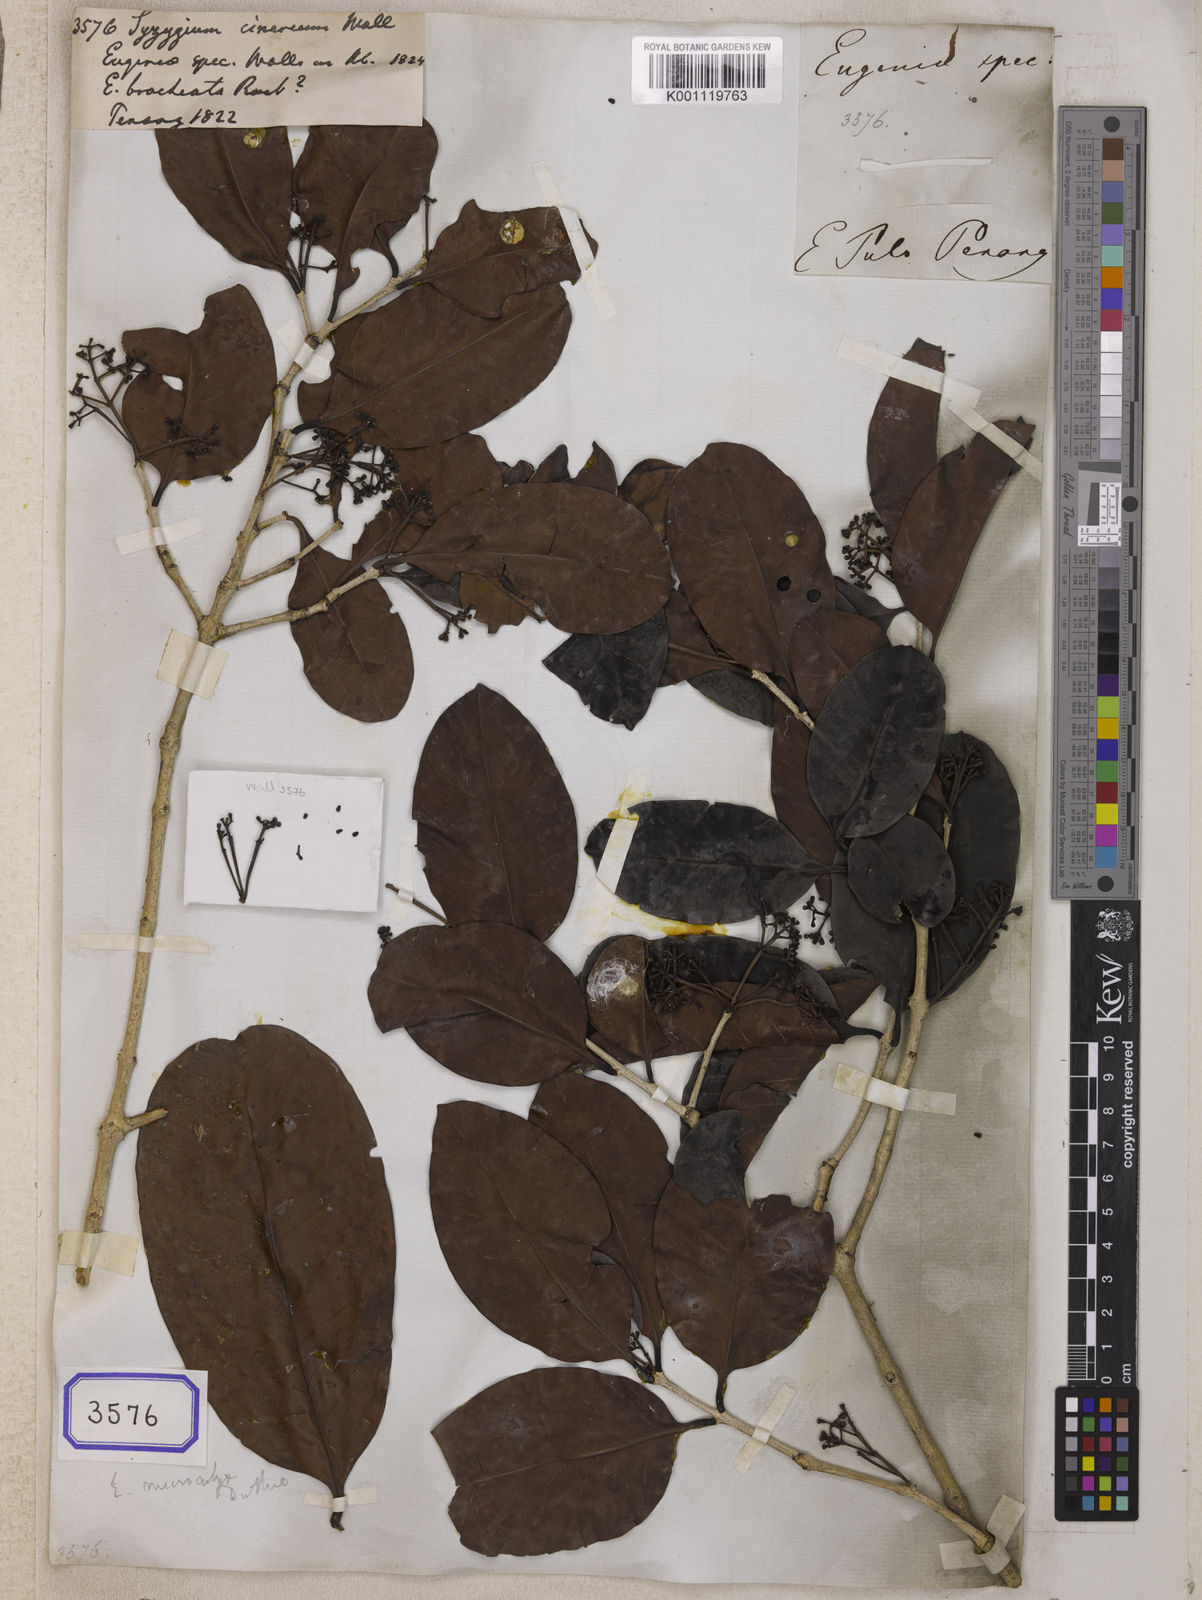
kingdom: Plantae
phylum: Tracheophyta
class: Magnoliopsida
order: Myrtales
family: Myrtaceae
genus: Syzygium
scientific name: Syzygium
